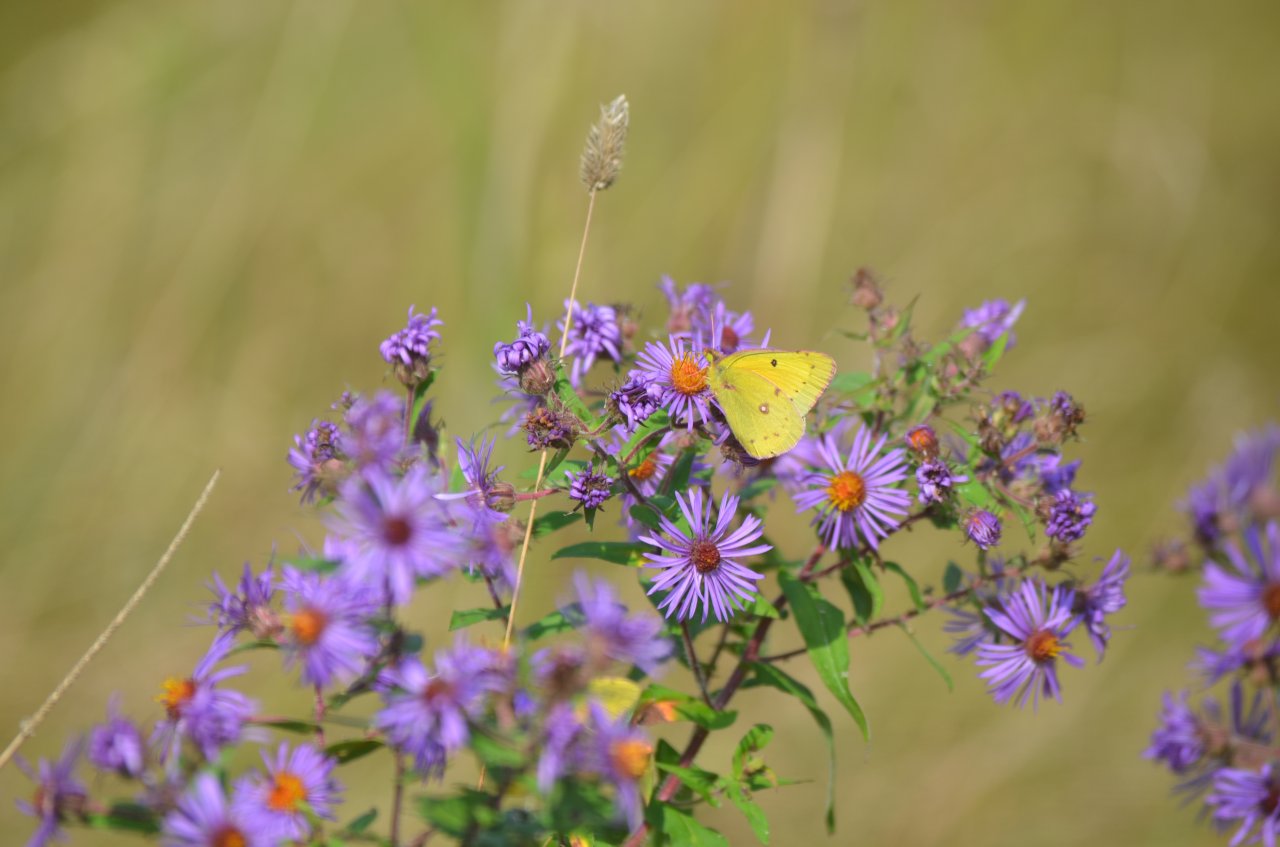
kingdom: Animalia
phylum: Arthropoda
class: Insecta
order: Lepidoptera
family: Pieridae
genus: Colias
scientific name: Colias philodice
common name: Clouded Sulphur
